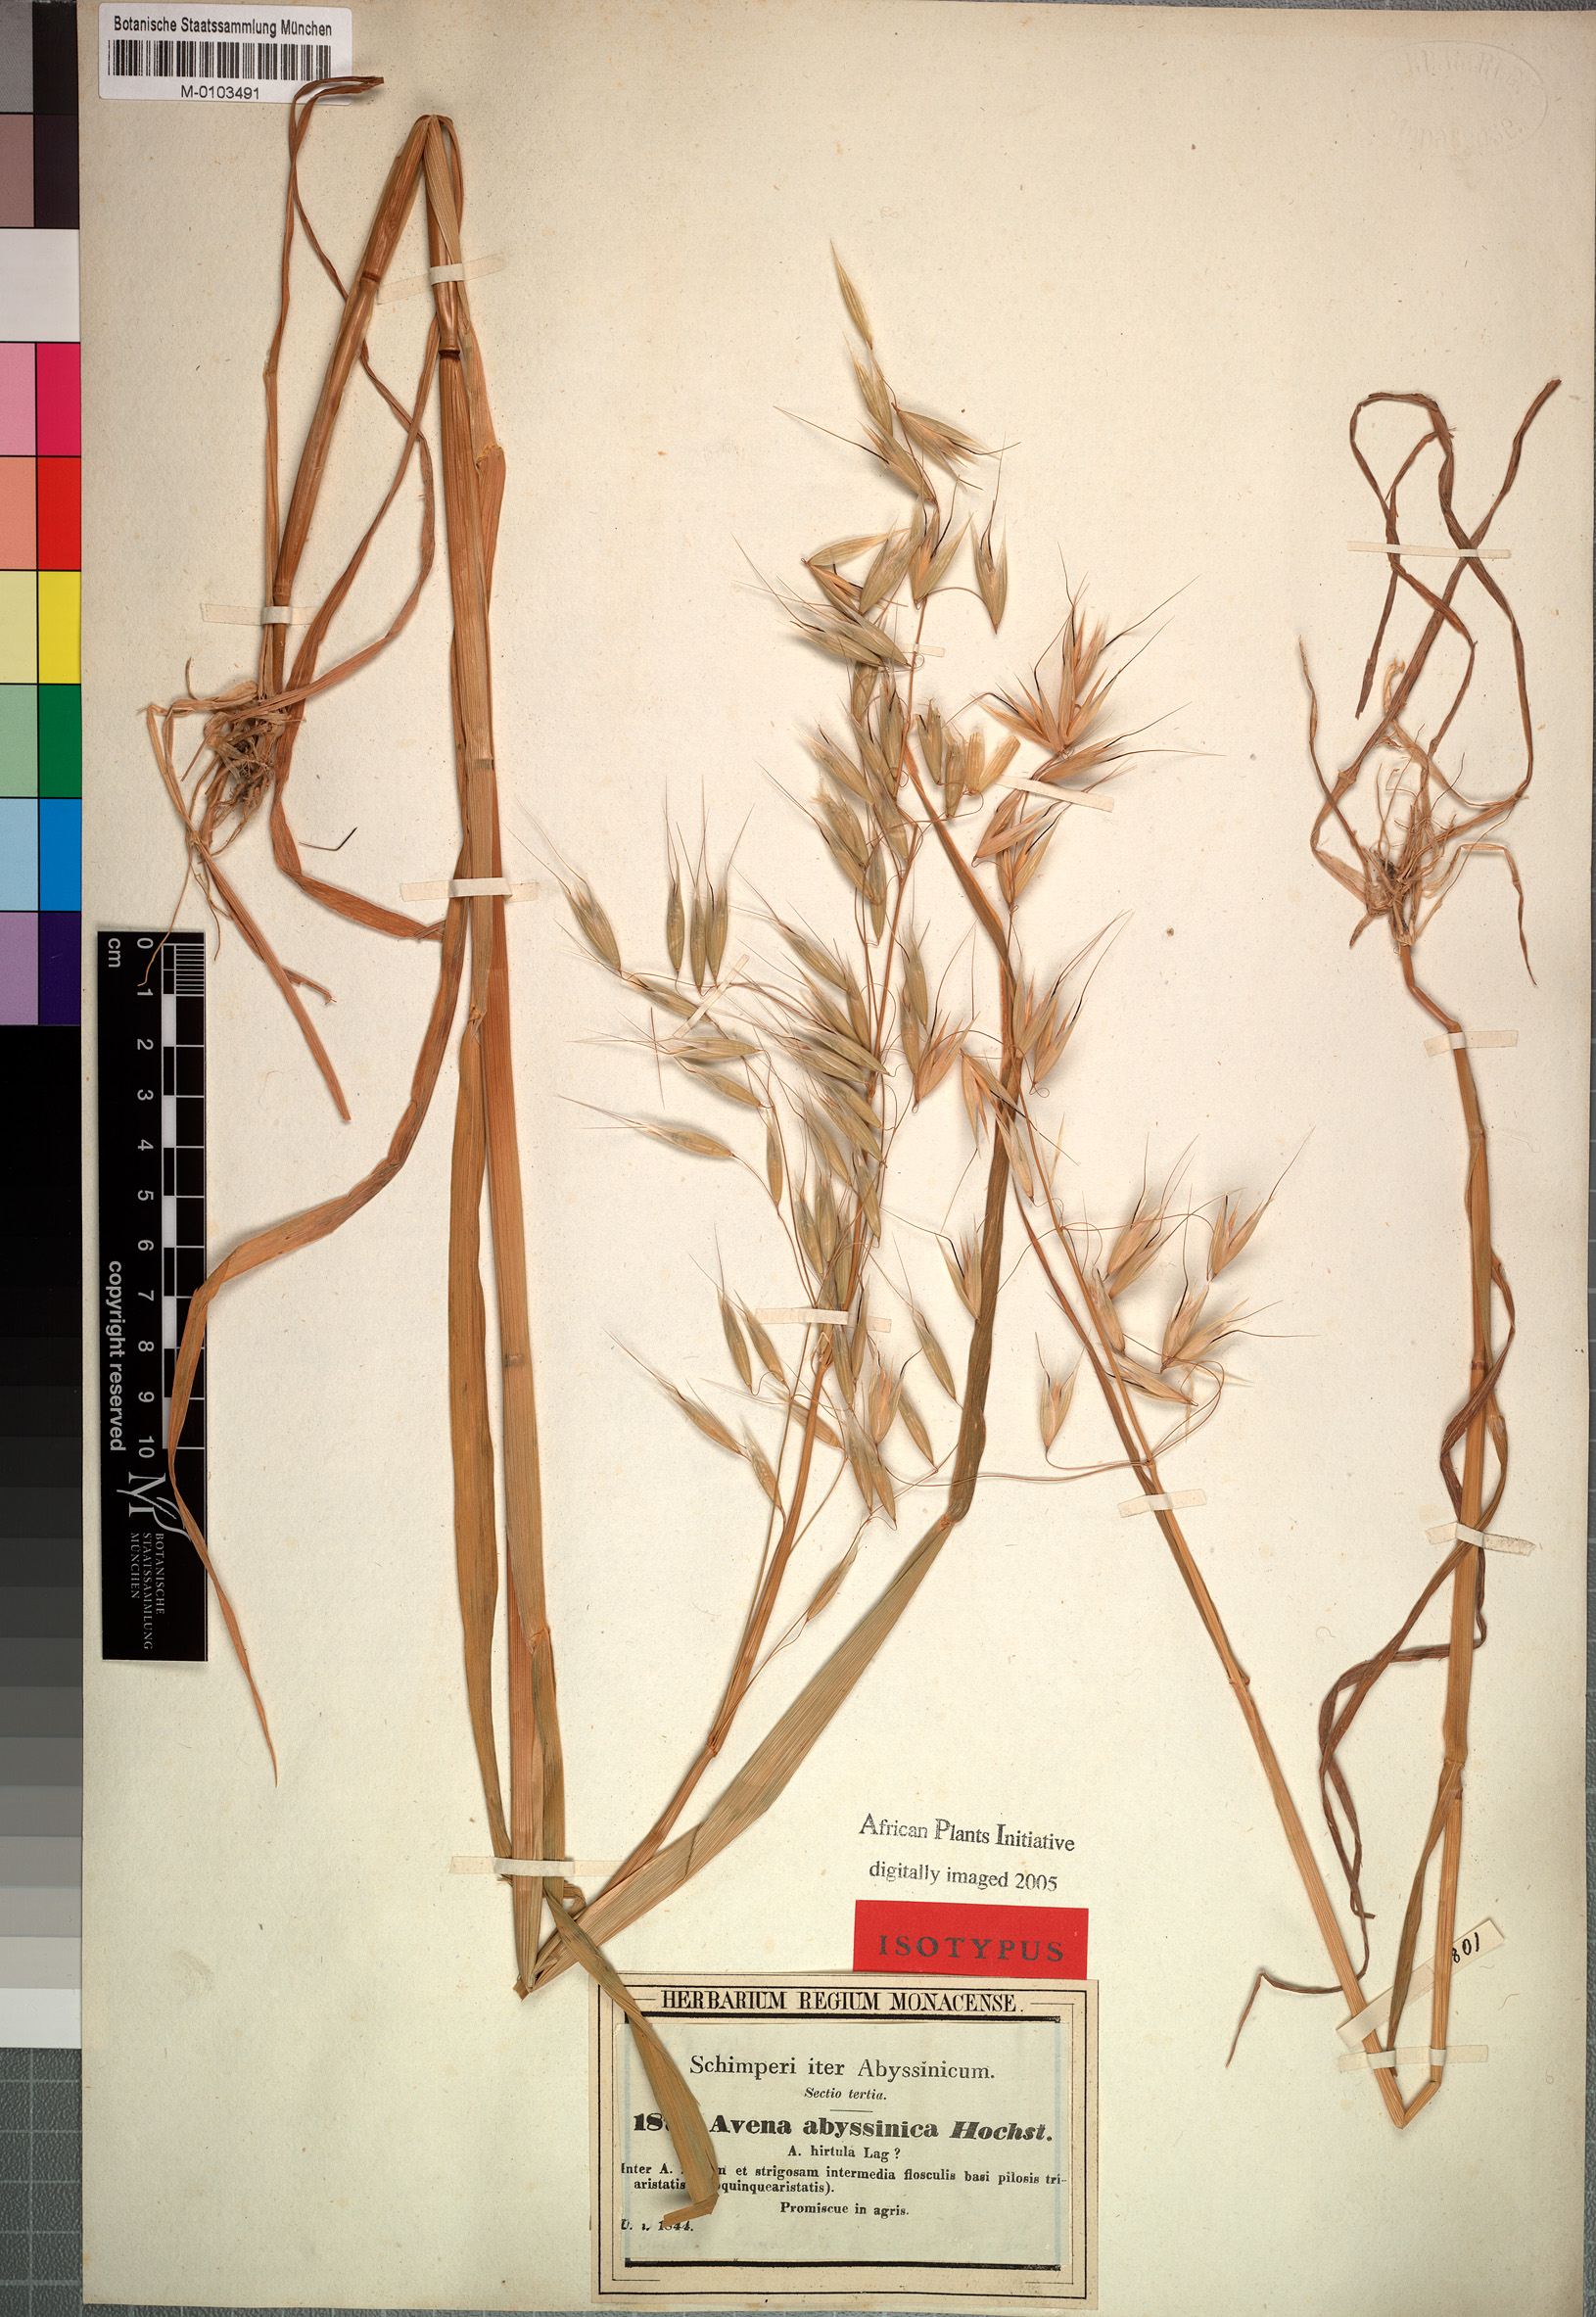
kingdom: Plantae
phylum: Tracheophyta
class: Liliopsida
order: Poales
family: Poaceae
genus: Avena
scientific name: Avena abyssinica
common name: Ethiopian oat
